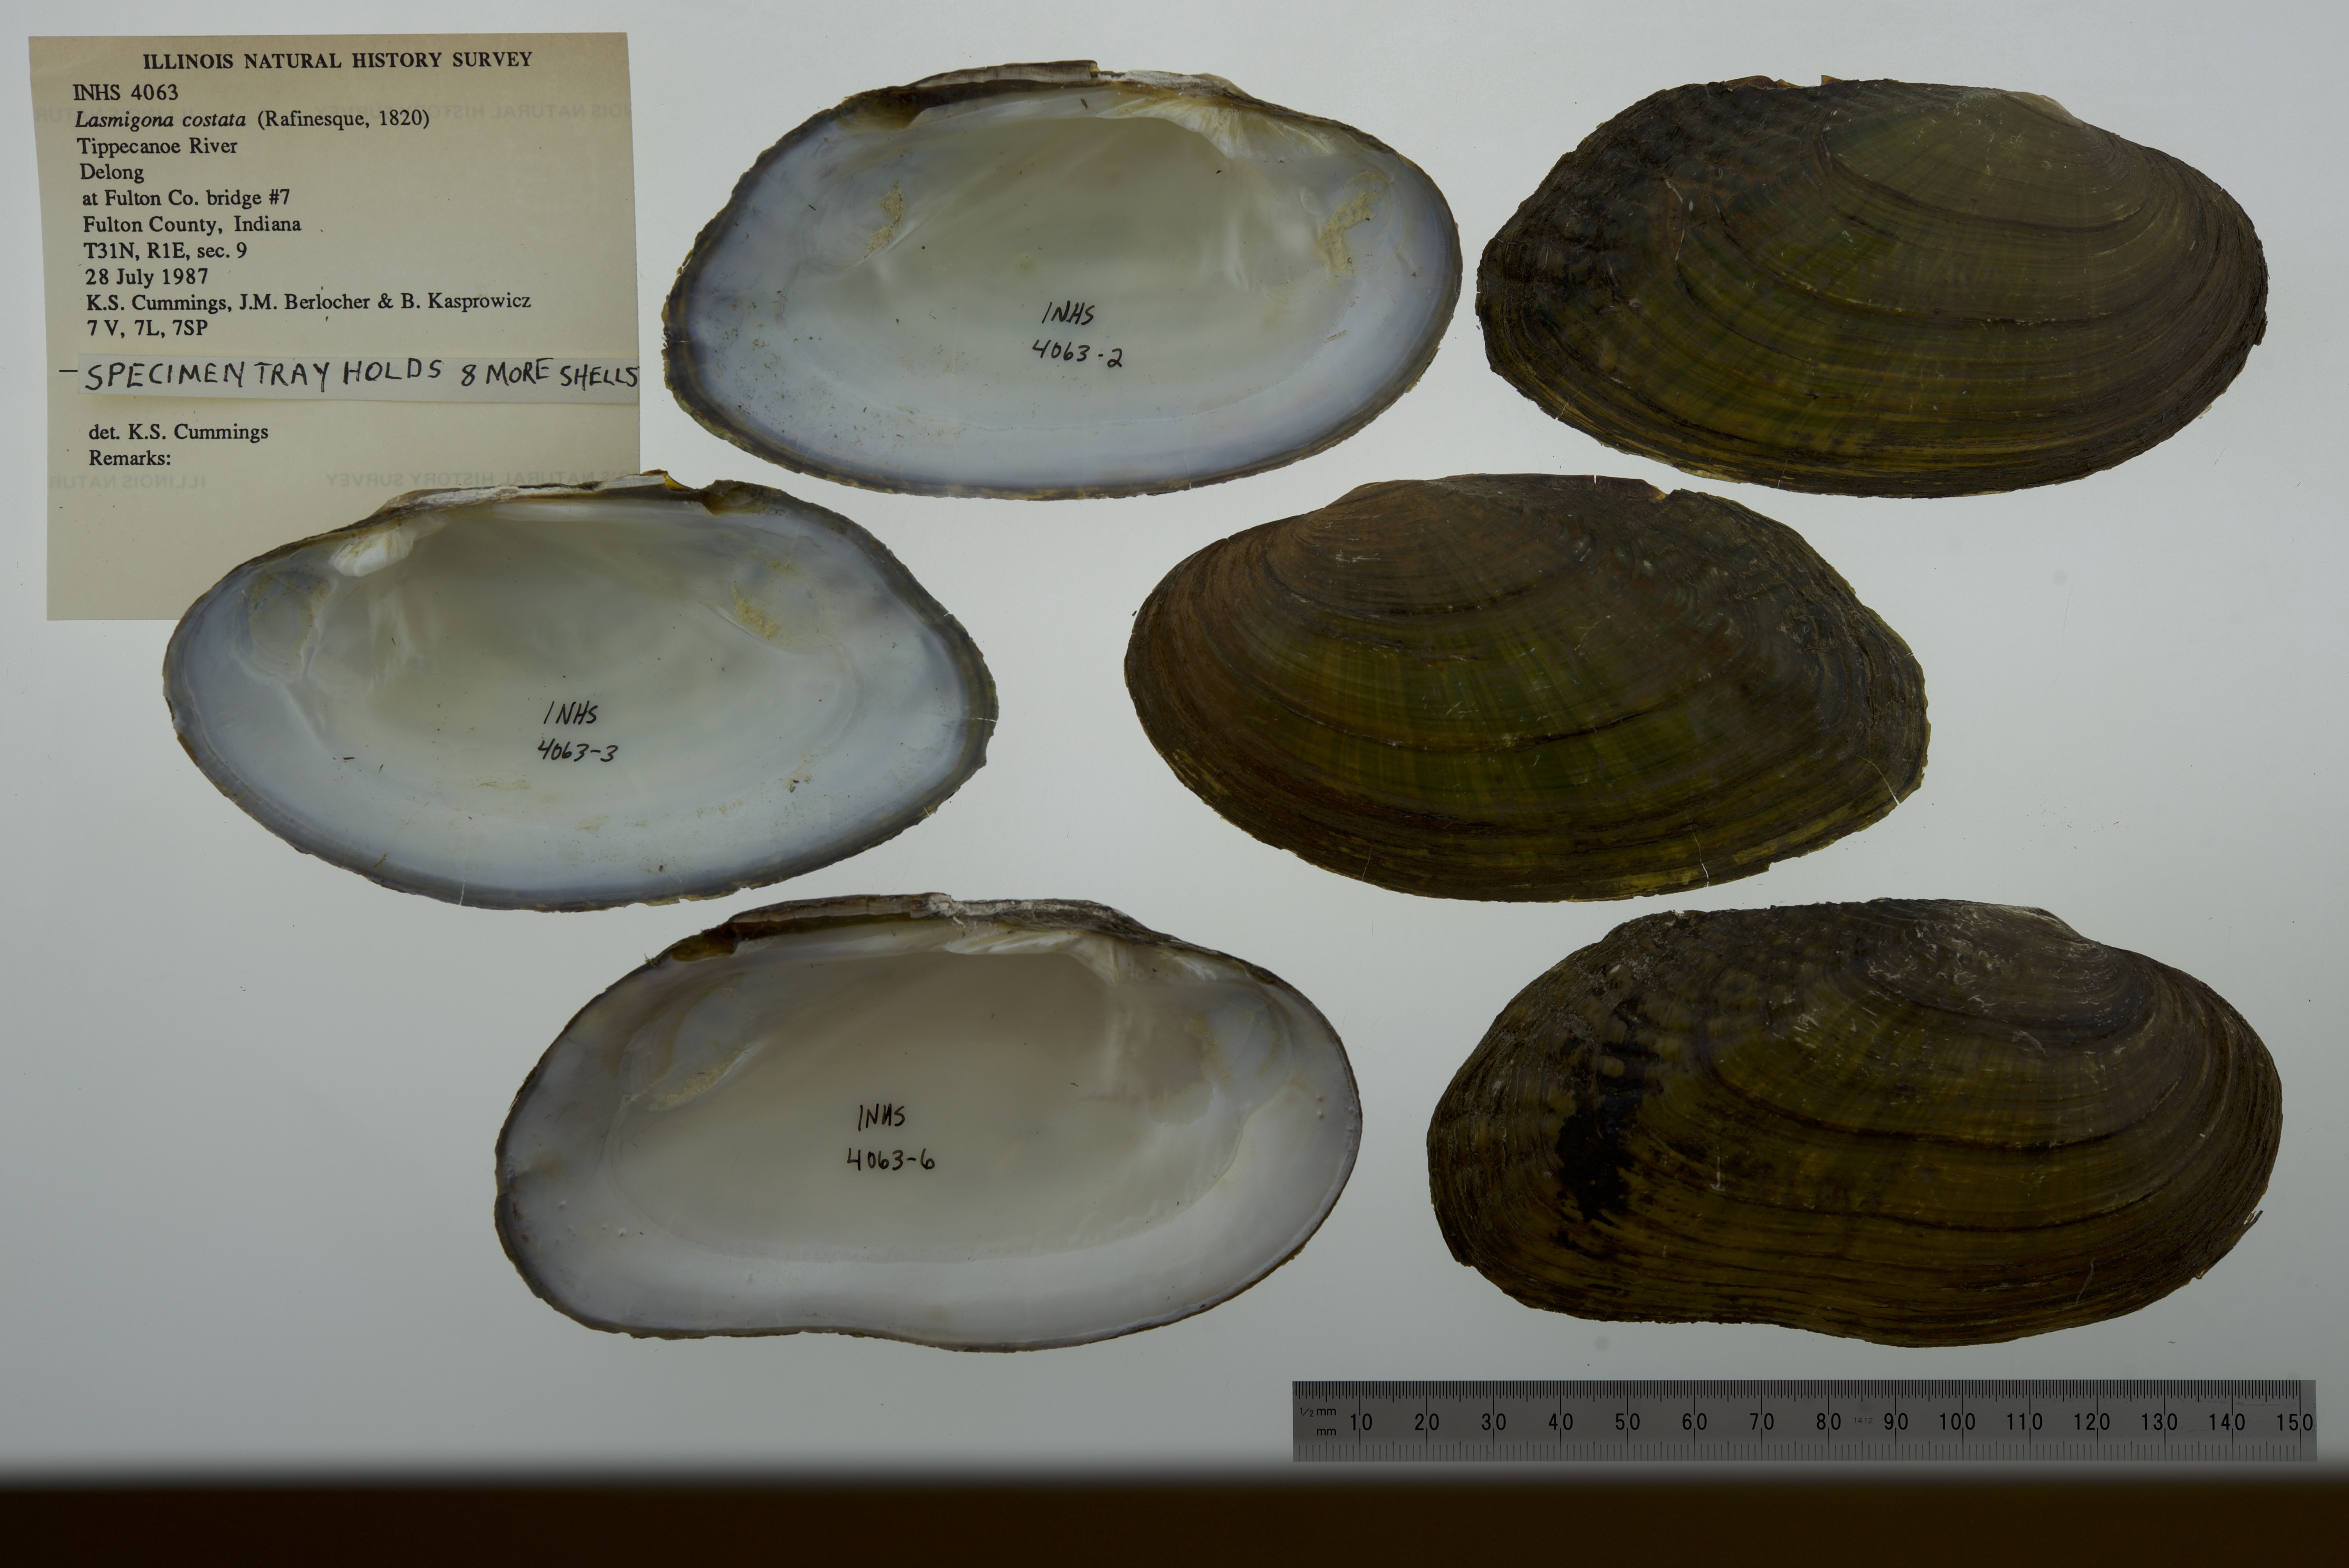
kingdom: Animalia
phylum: Mollusca
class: Bivalvia
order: Unionida
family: Unionidae
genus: Lasmigona
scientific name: Lasmigona costata
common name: Flutedshell
